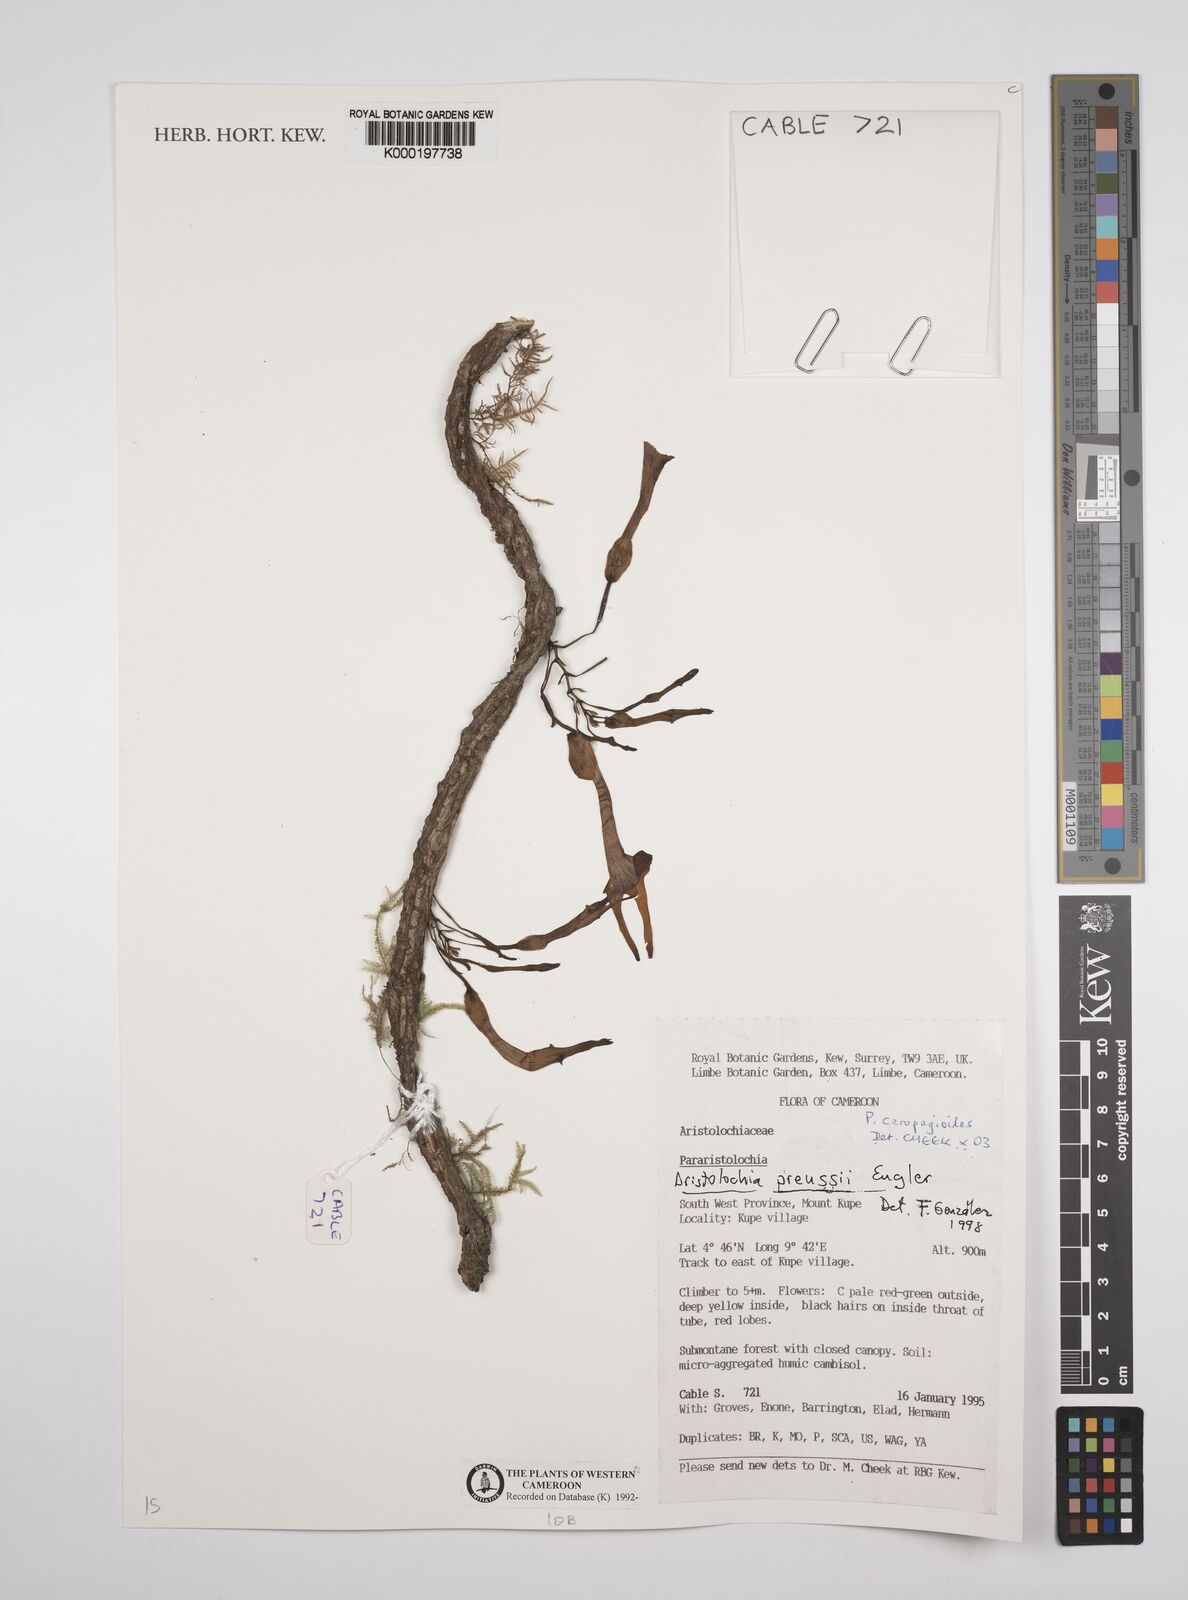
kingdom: Plantae
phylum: Tracheophyta
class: Magnoliopsida
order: Piperales
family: Aristolochiaceae
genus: Aristolochia
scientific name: Aristolochia ceropegioides
